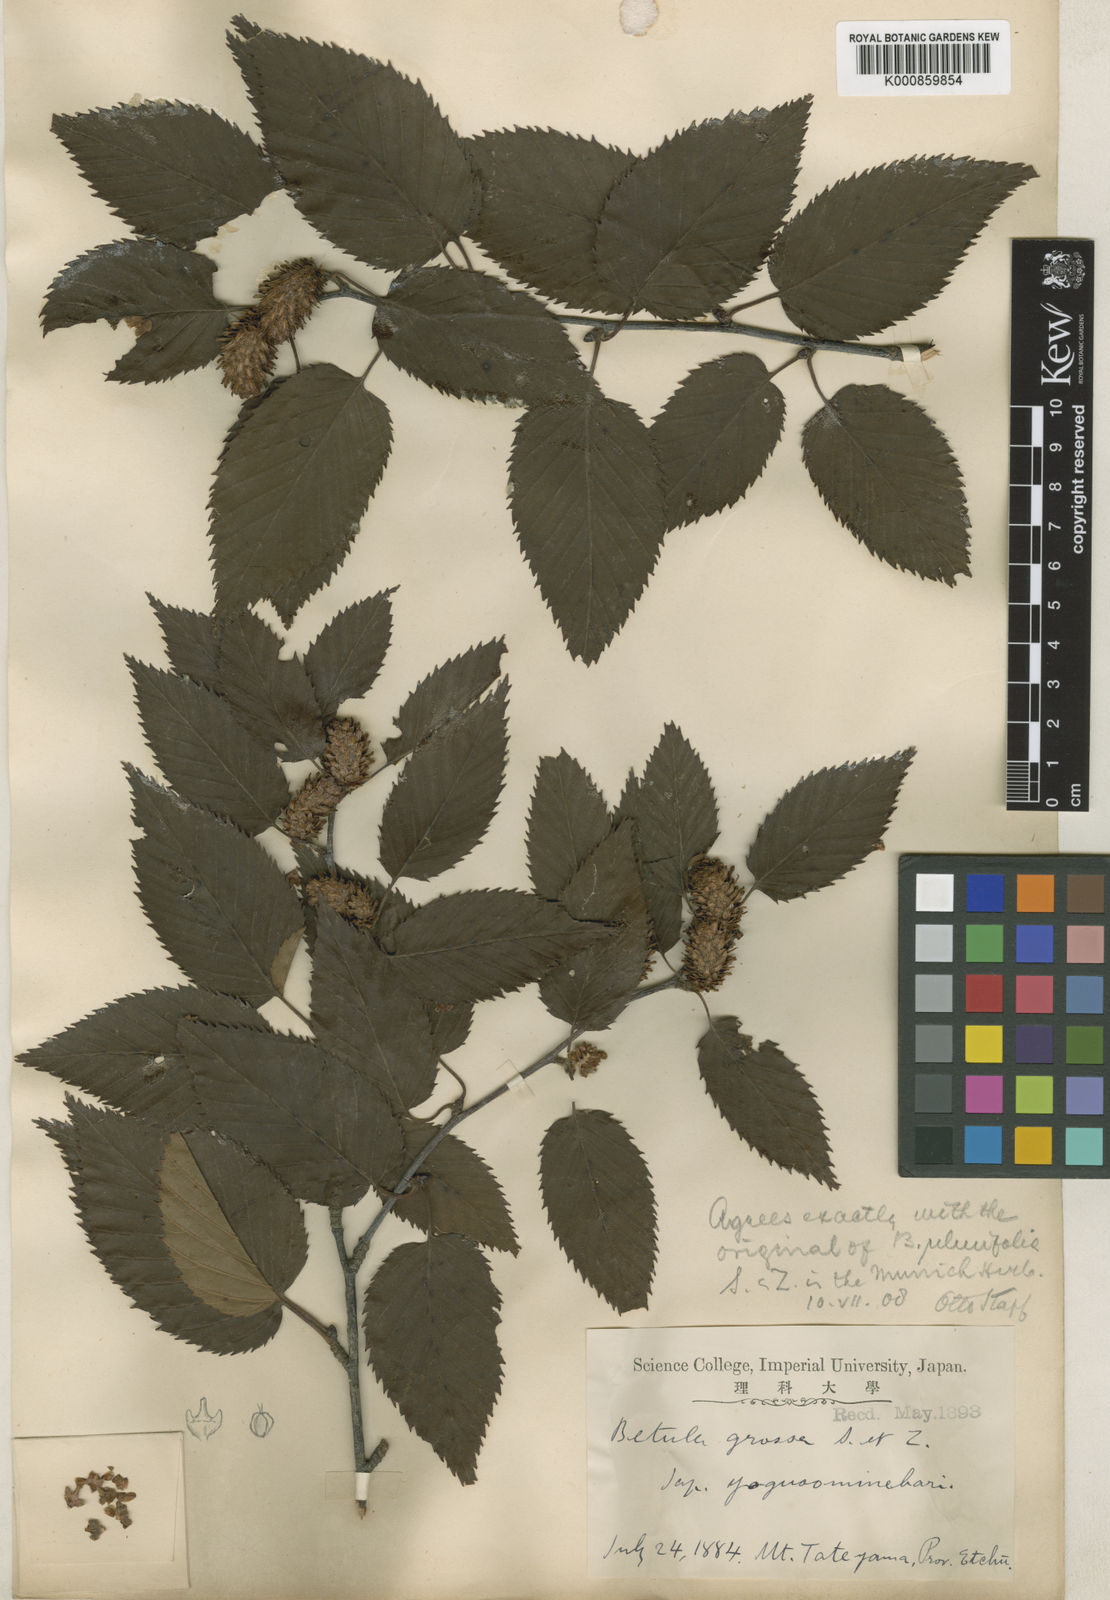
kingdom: Plantae
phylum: Tracheophyta
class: Magnoliopsida
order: Fagales
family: Betulaceae
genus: Betula
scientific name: Betula grossa
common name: Japanese cherry birch
